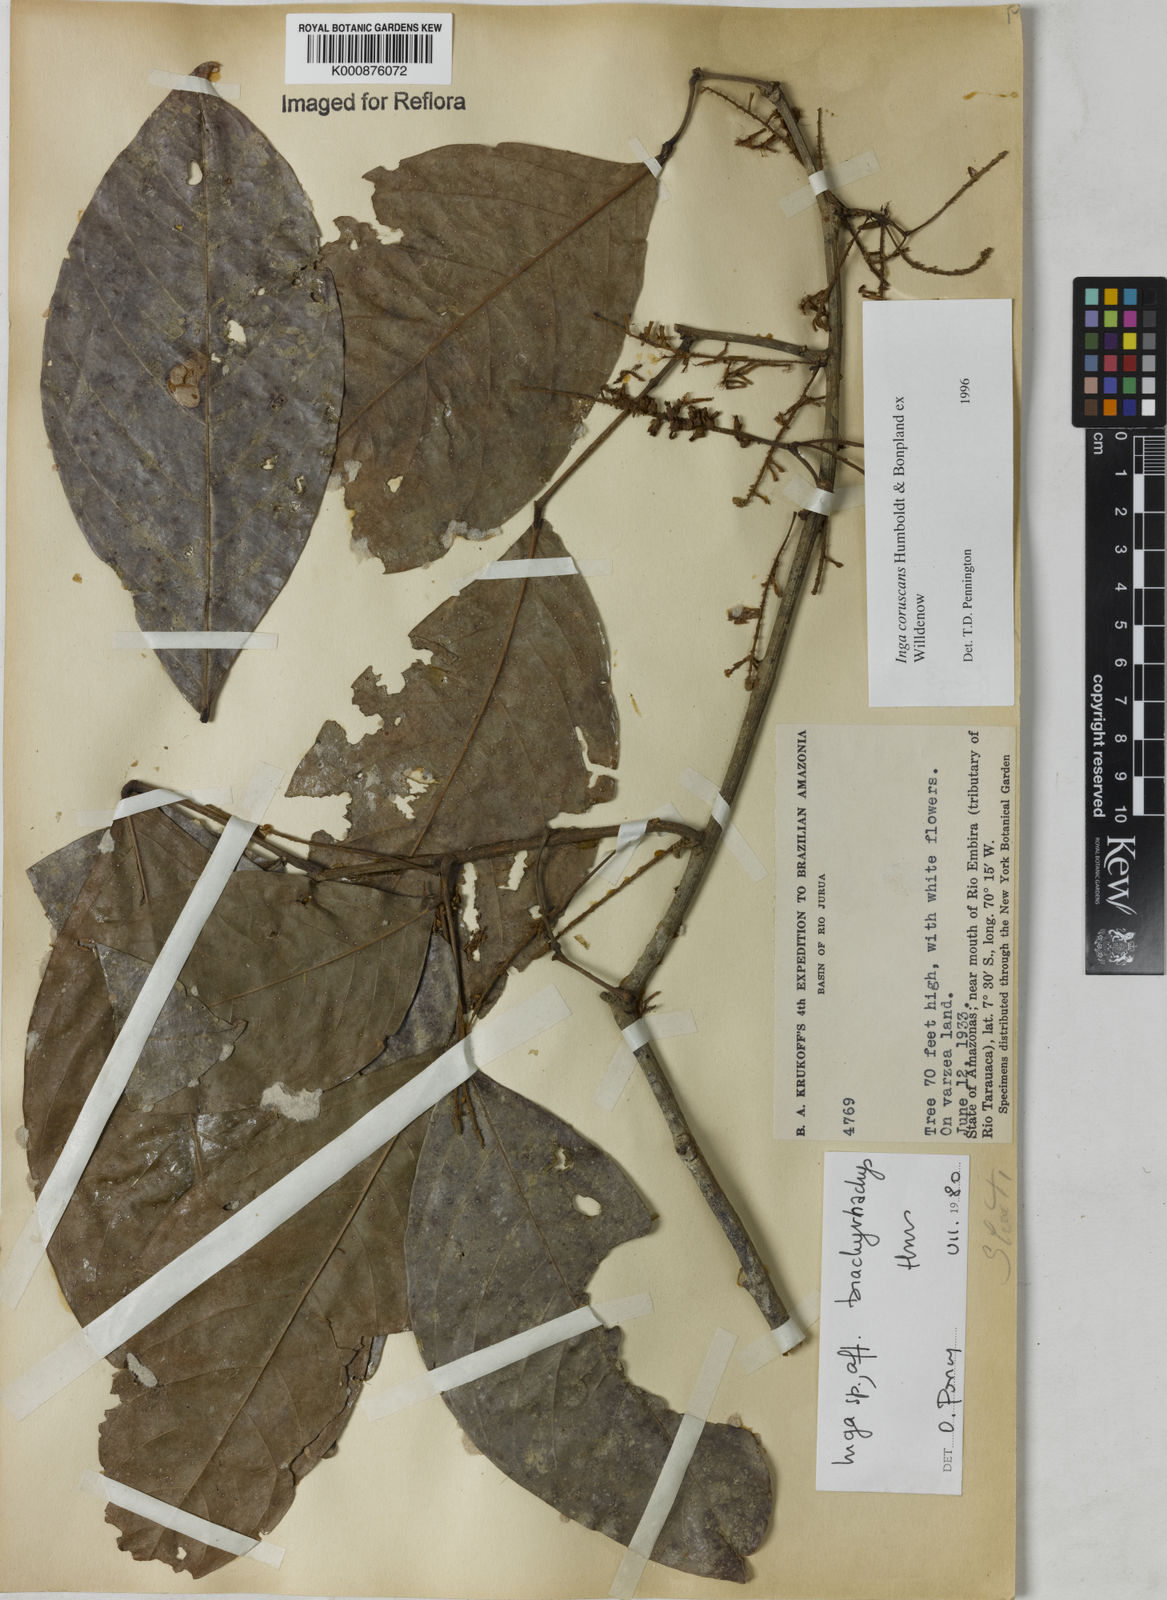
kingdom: Plantae
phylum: Tracheophyta
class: Magnoliopsida
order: Fabales
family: Fabaceae
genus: Inga
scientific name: Inga coruscans
